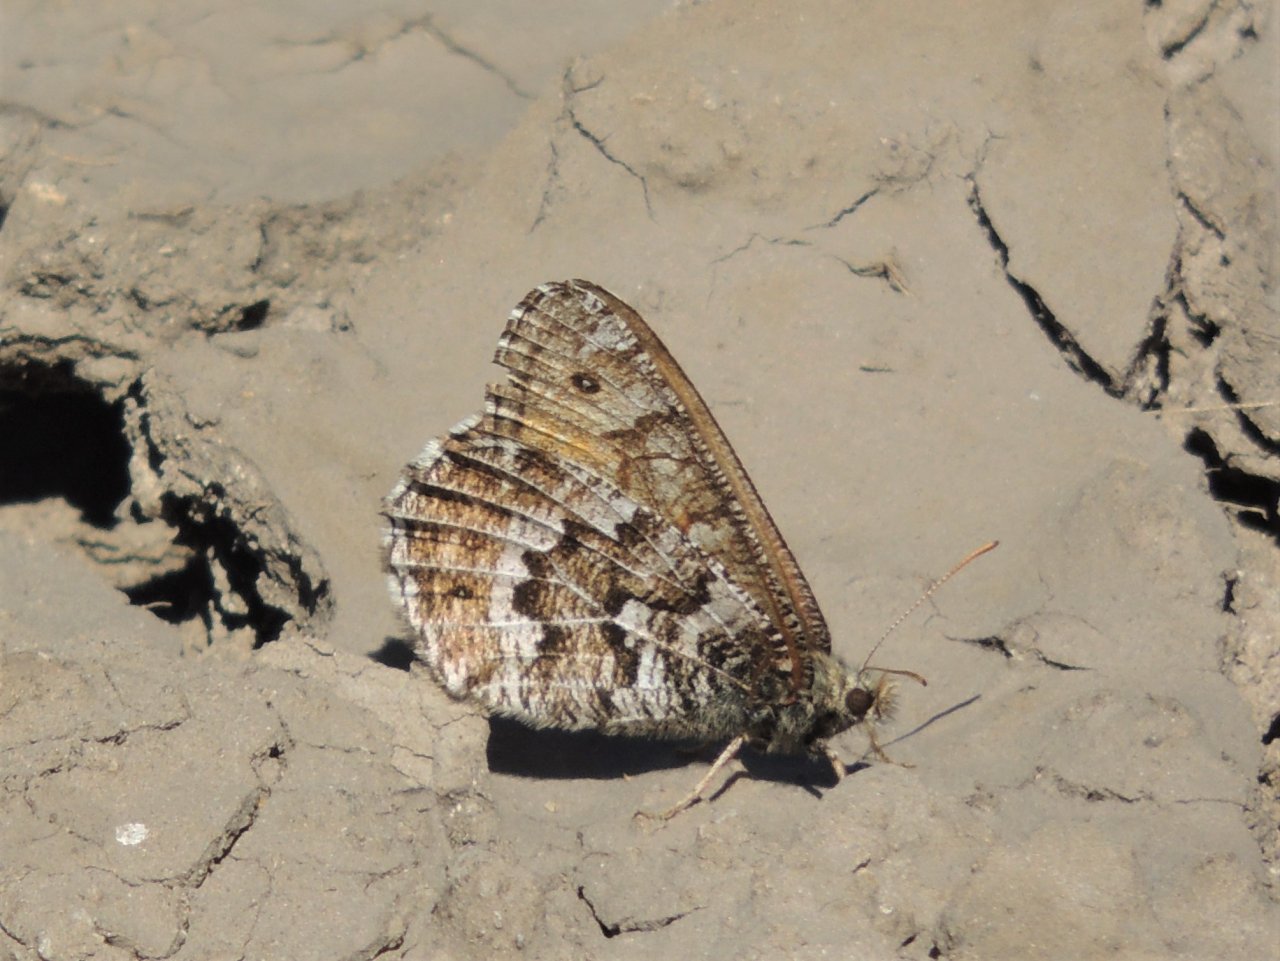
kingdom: Animalia
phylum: Arthropoda
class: Insecta
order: Lepidoptera
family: Nymphalidae
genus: Oeneis
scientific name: Oeneis chryxus
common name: Chryxus Arctic
